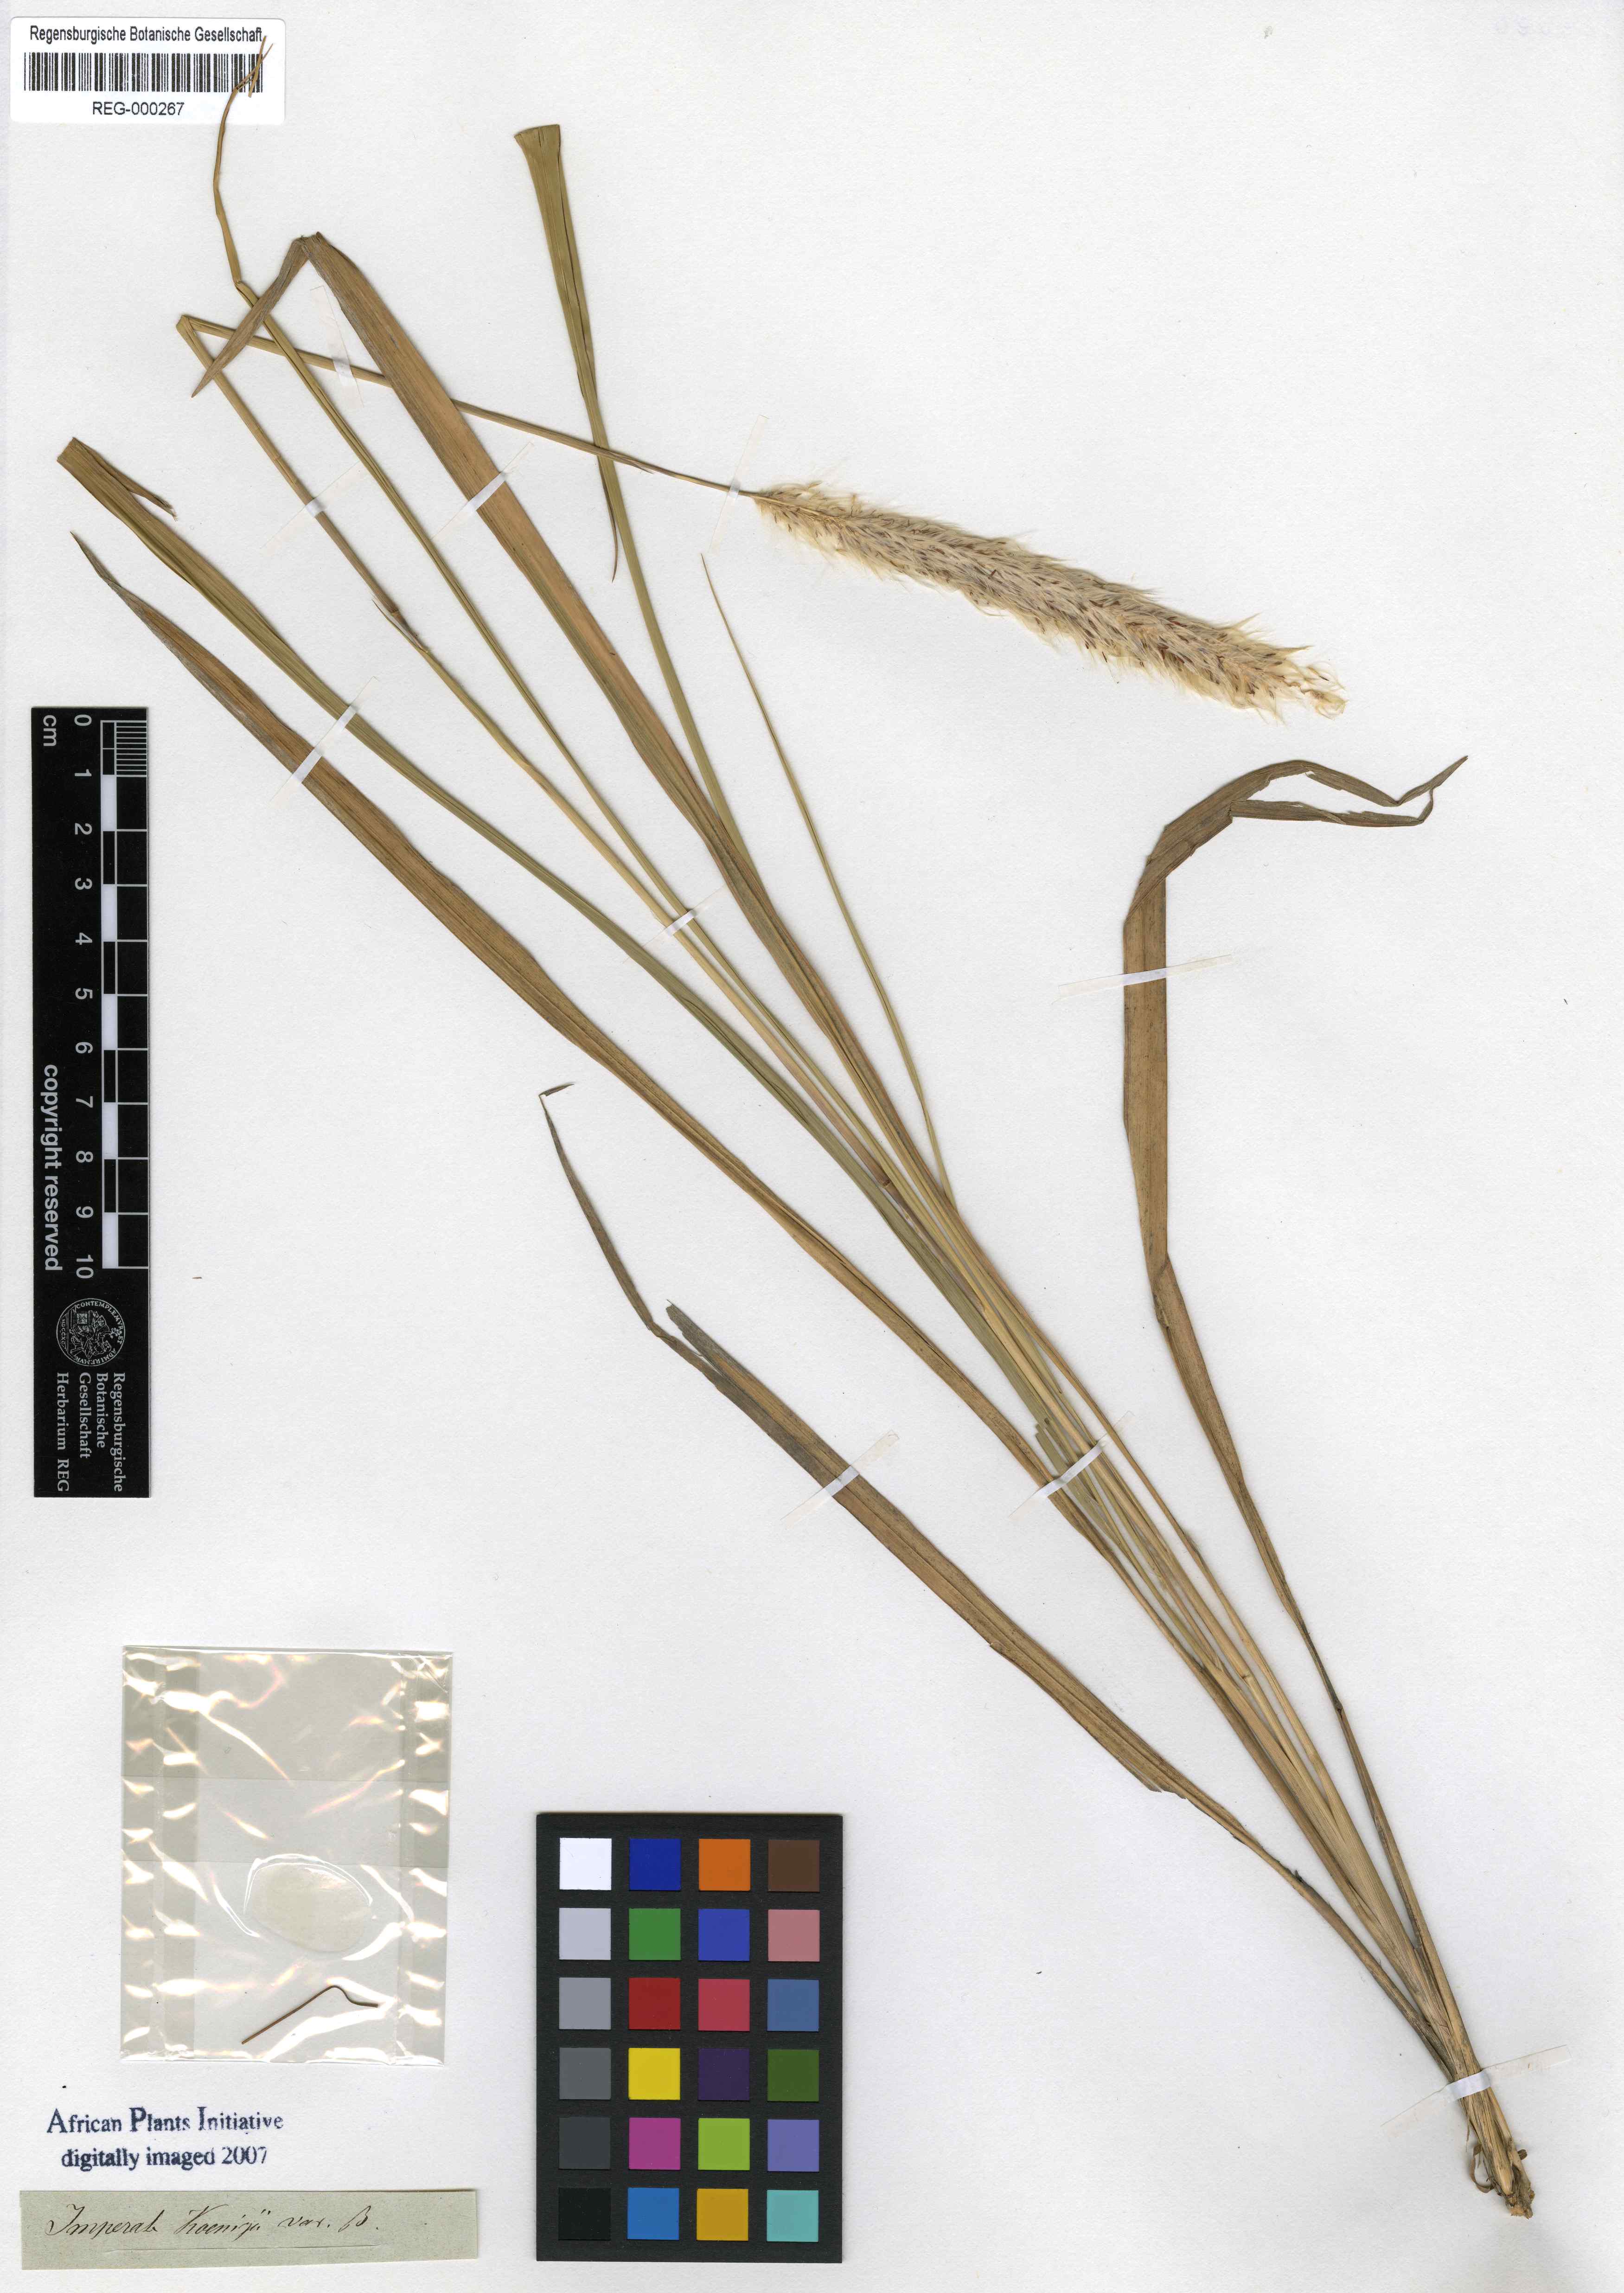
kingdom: Plantae
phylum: Tracheophyta
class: Liliopsida
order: Poales
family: Poaceae
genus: Imperata
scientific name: Imperata cylindrica
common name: Cogongrass
